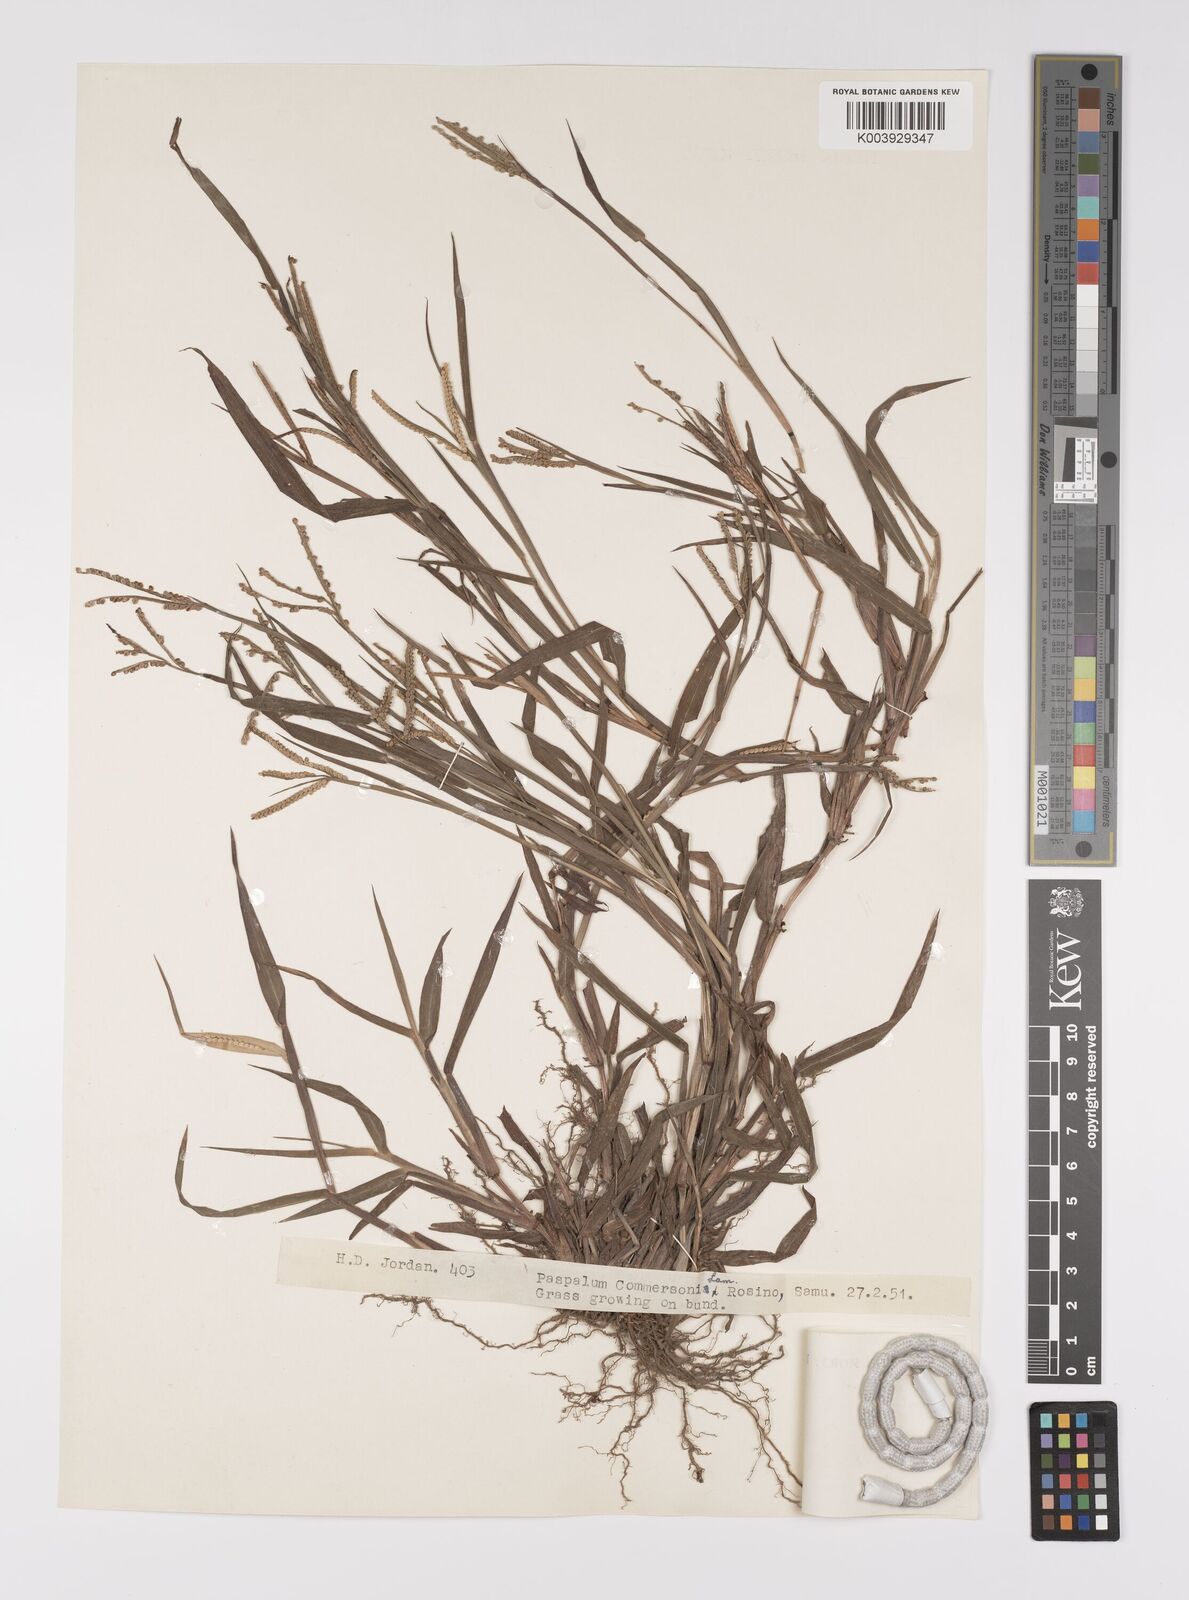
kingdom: Plantae
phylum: Tracheophyta
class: Liliopsida
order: Poales
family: Poaceae
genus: Paspalum
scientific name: Paspalum scrobiculatum
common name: Kodo millet
